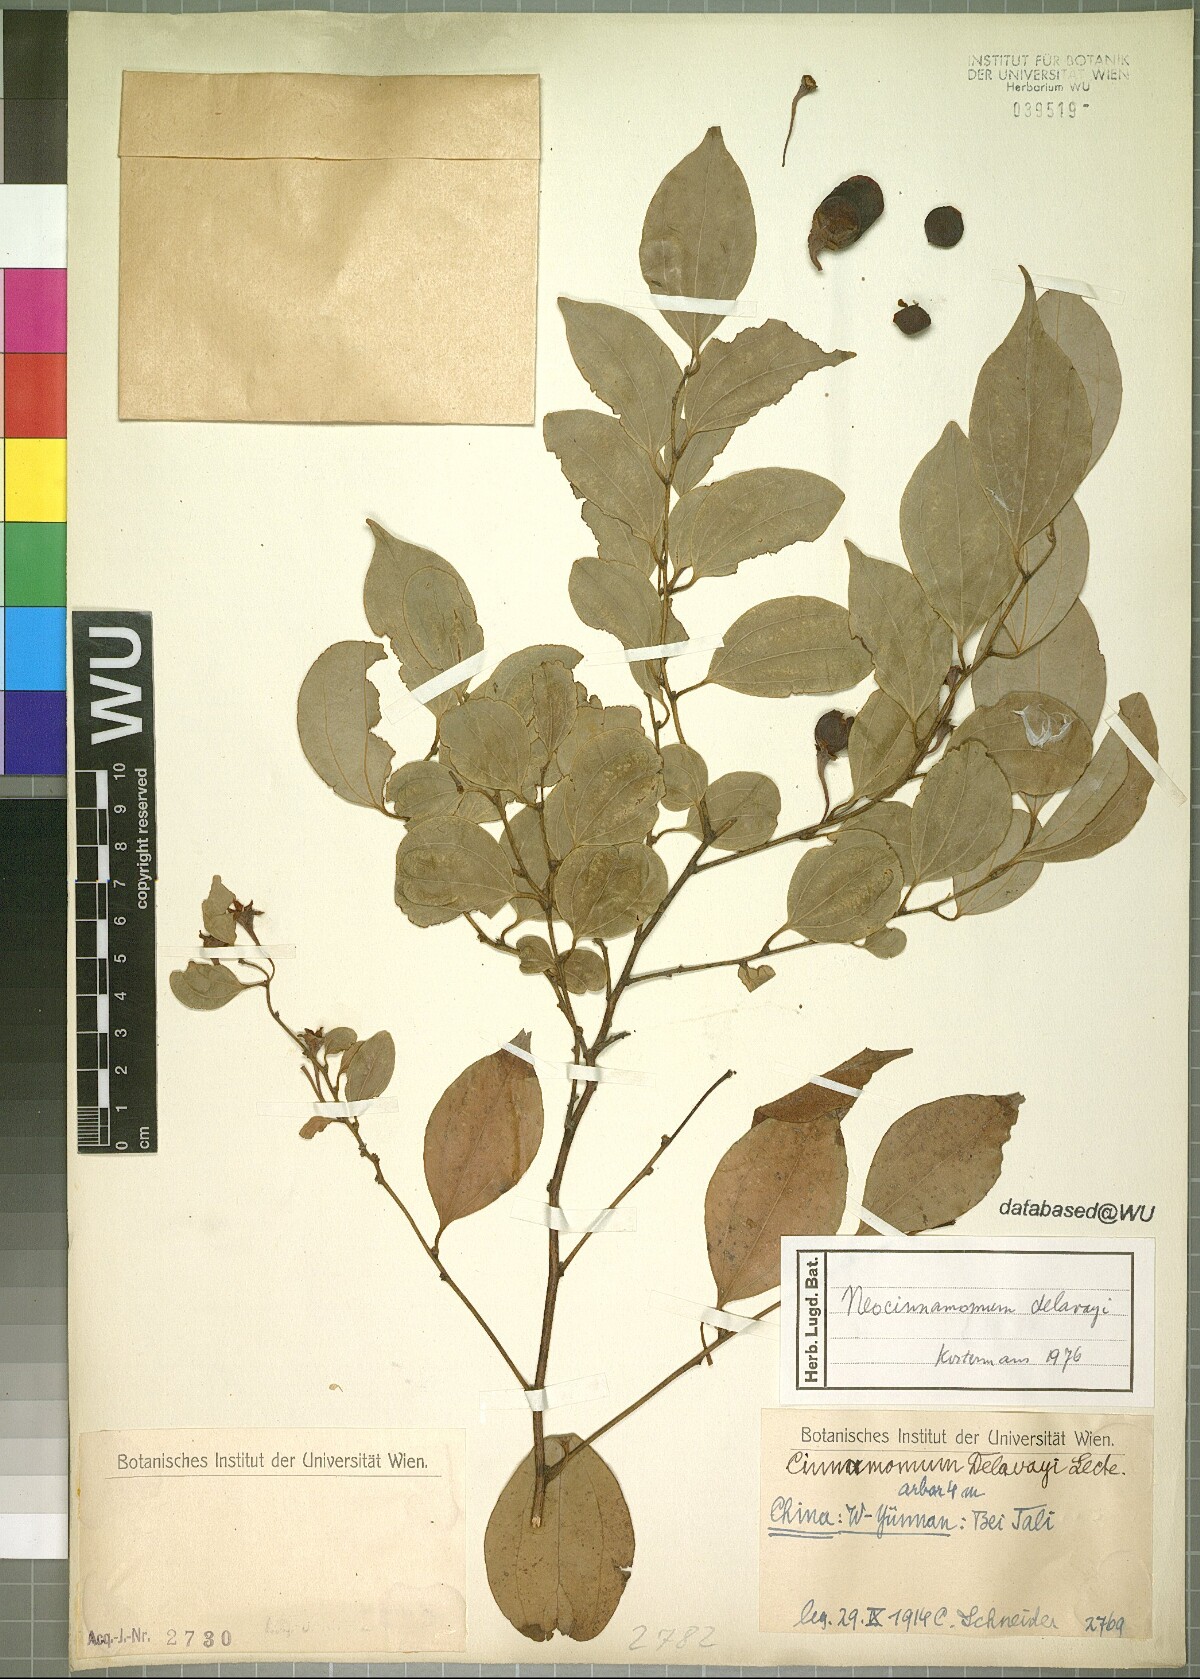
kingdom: Plantae
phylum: Tracheophyta
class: Magnoliopsida
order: Laurales
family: Lauraceae
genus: Neocinnamomum
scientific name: Neocinnamomum delavayi
